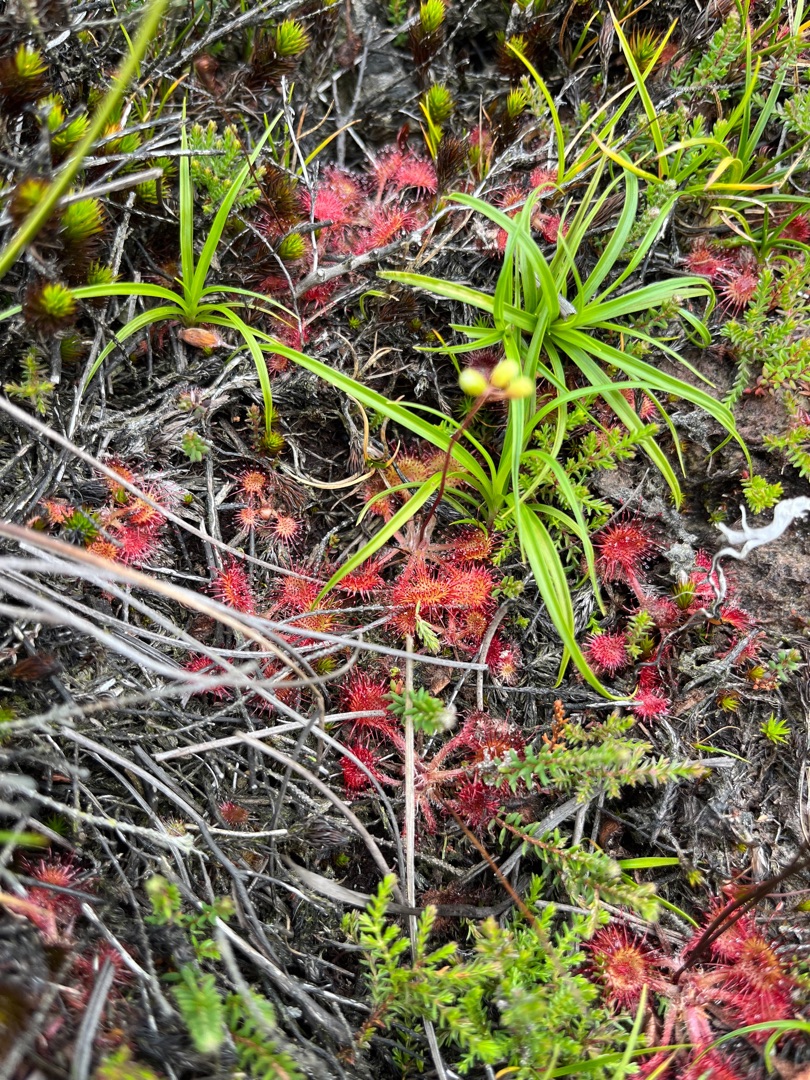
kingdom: Plantae
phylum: Tracheophyta
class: Magnoliopsida
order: Caryophyllales
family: Droseraceae
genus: Drosera
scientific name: Drosera intermedia
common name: Liden soldug
